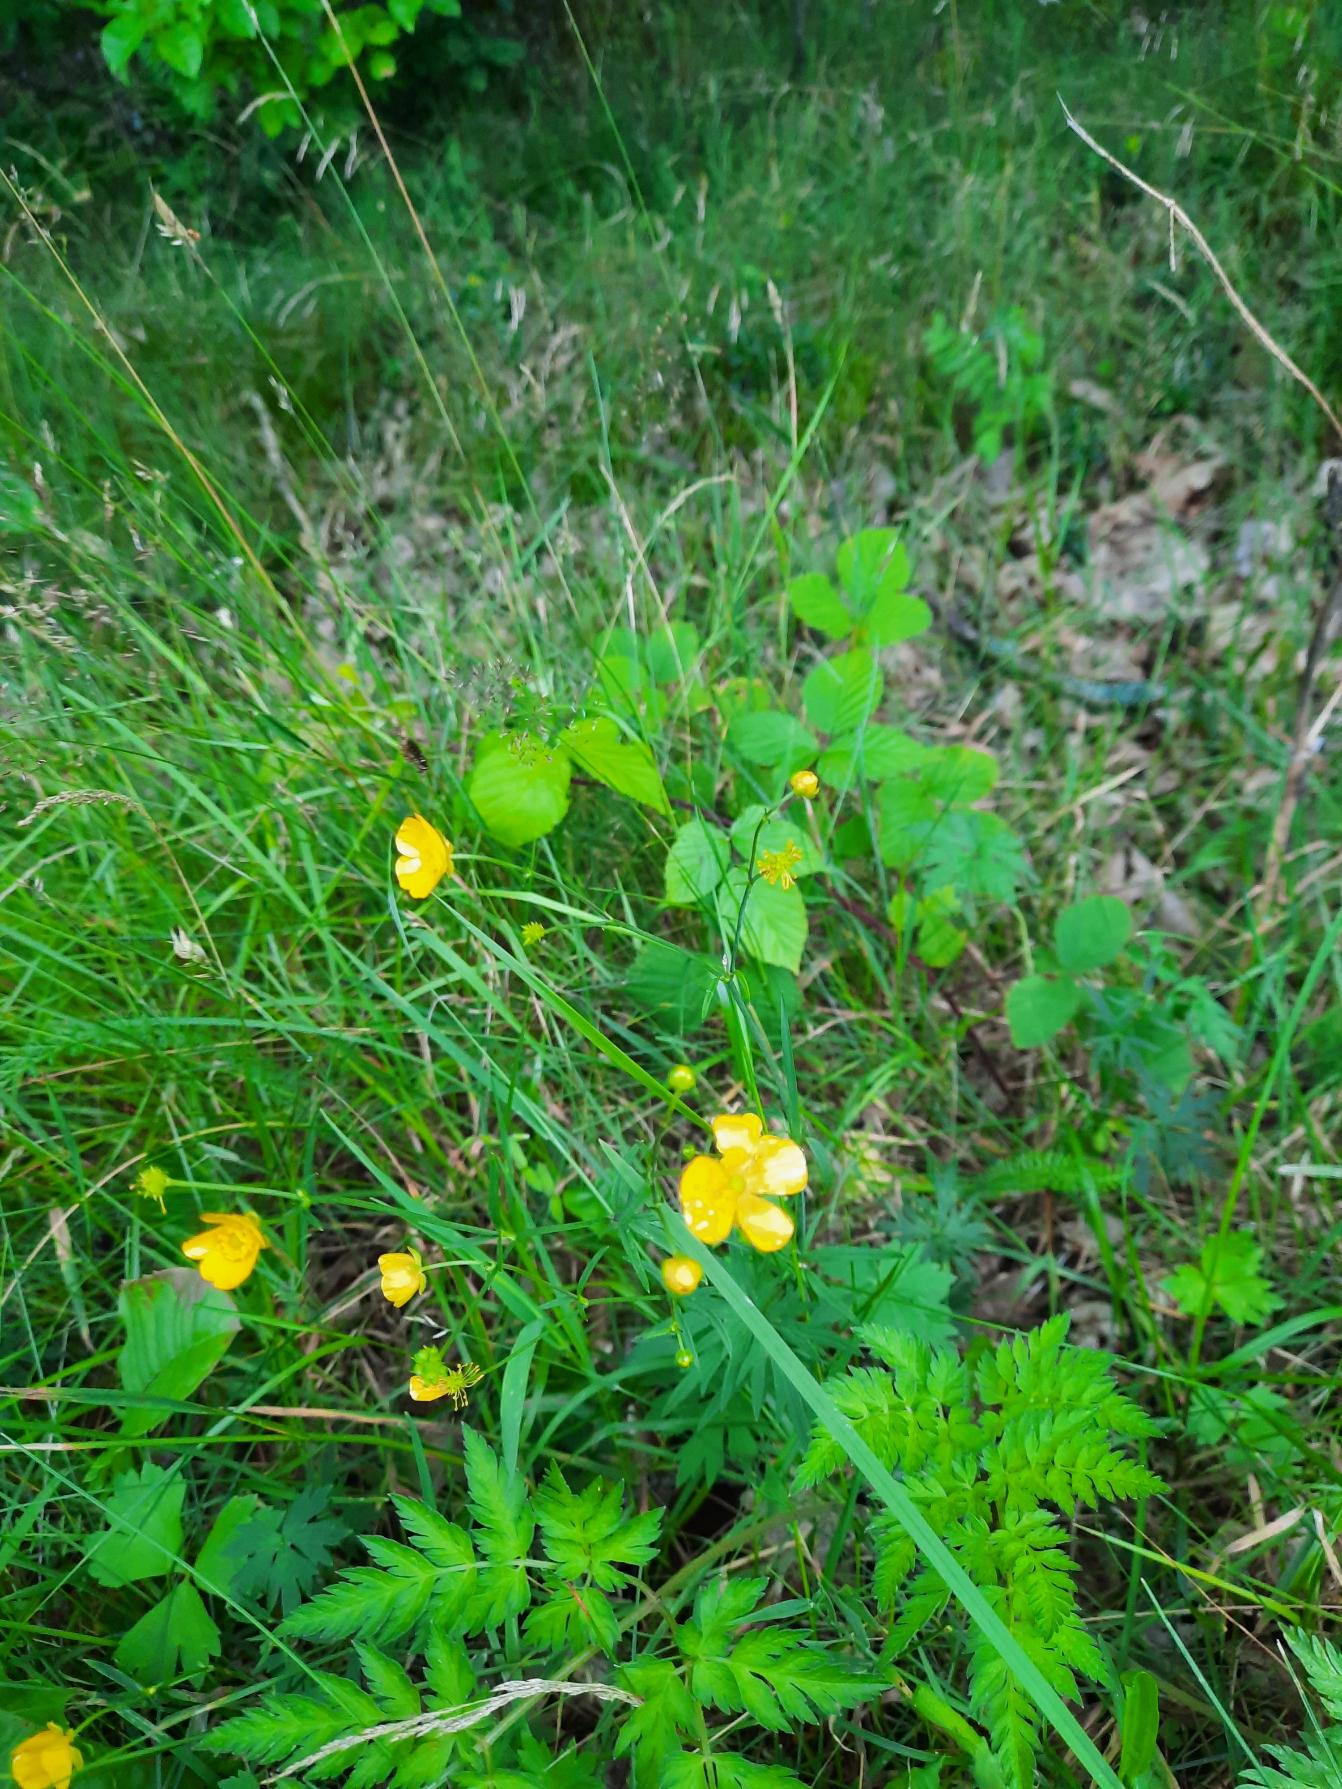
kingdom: Plantae
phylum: Tracheophyta
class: Magnoliopsida
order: Ranunculales
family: Ranunculaceae
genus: Ranunculus
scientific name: Ranunculus acris
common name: Bidende ranunkel
